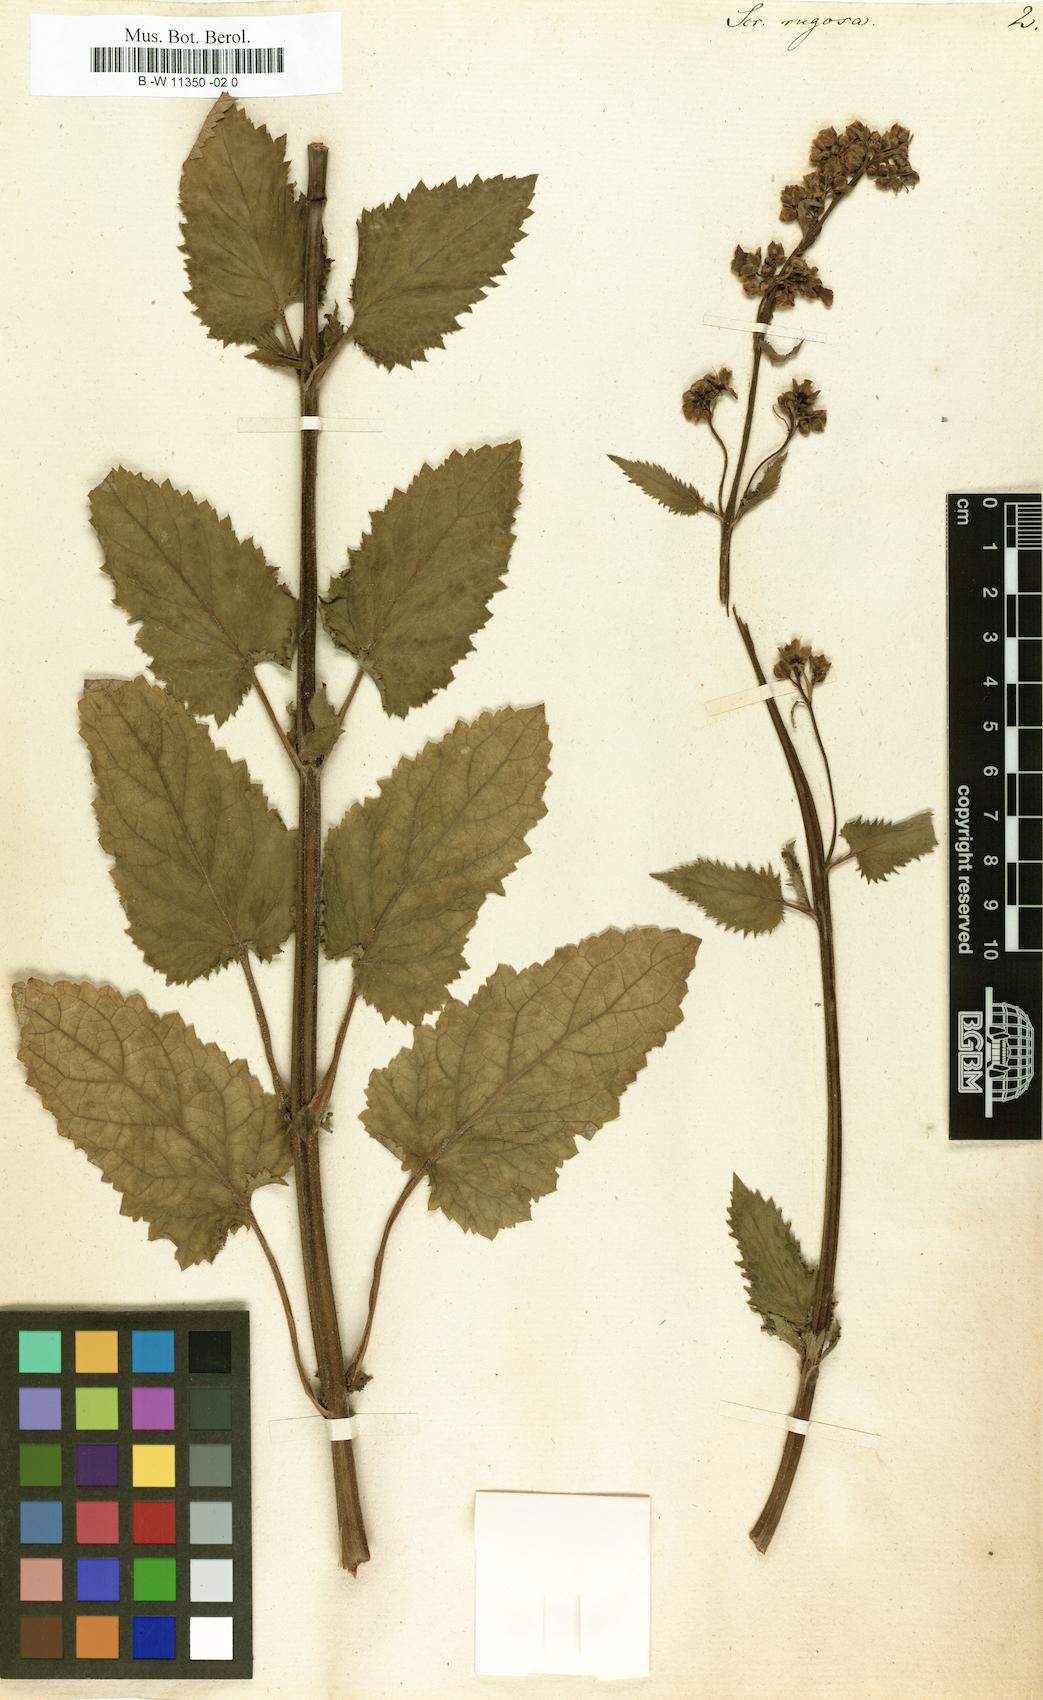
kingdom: Plantae
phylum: Tracheophyta
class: Magnoliopsida
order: Lamiales
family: Scrophulariaceae
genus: Scrophularia
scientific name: Scrophularia
